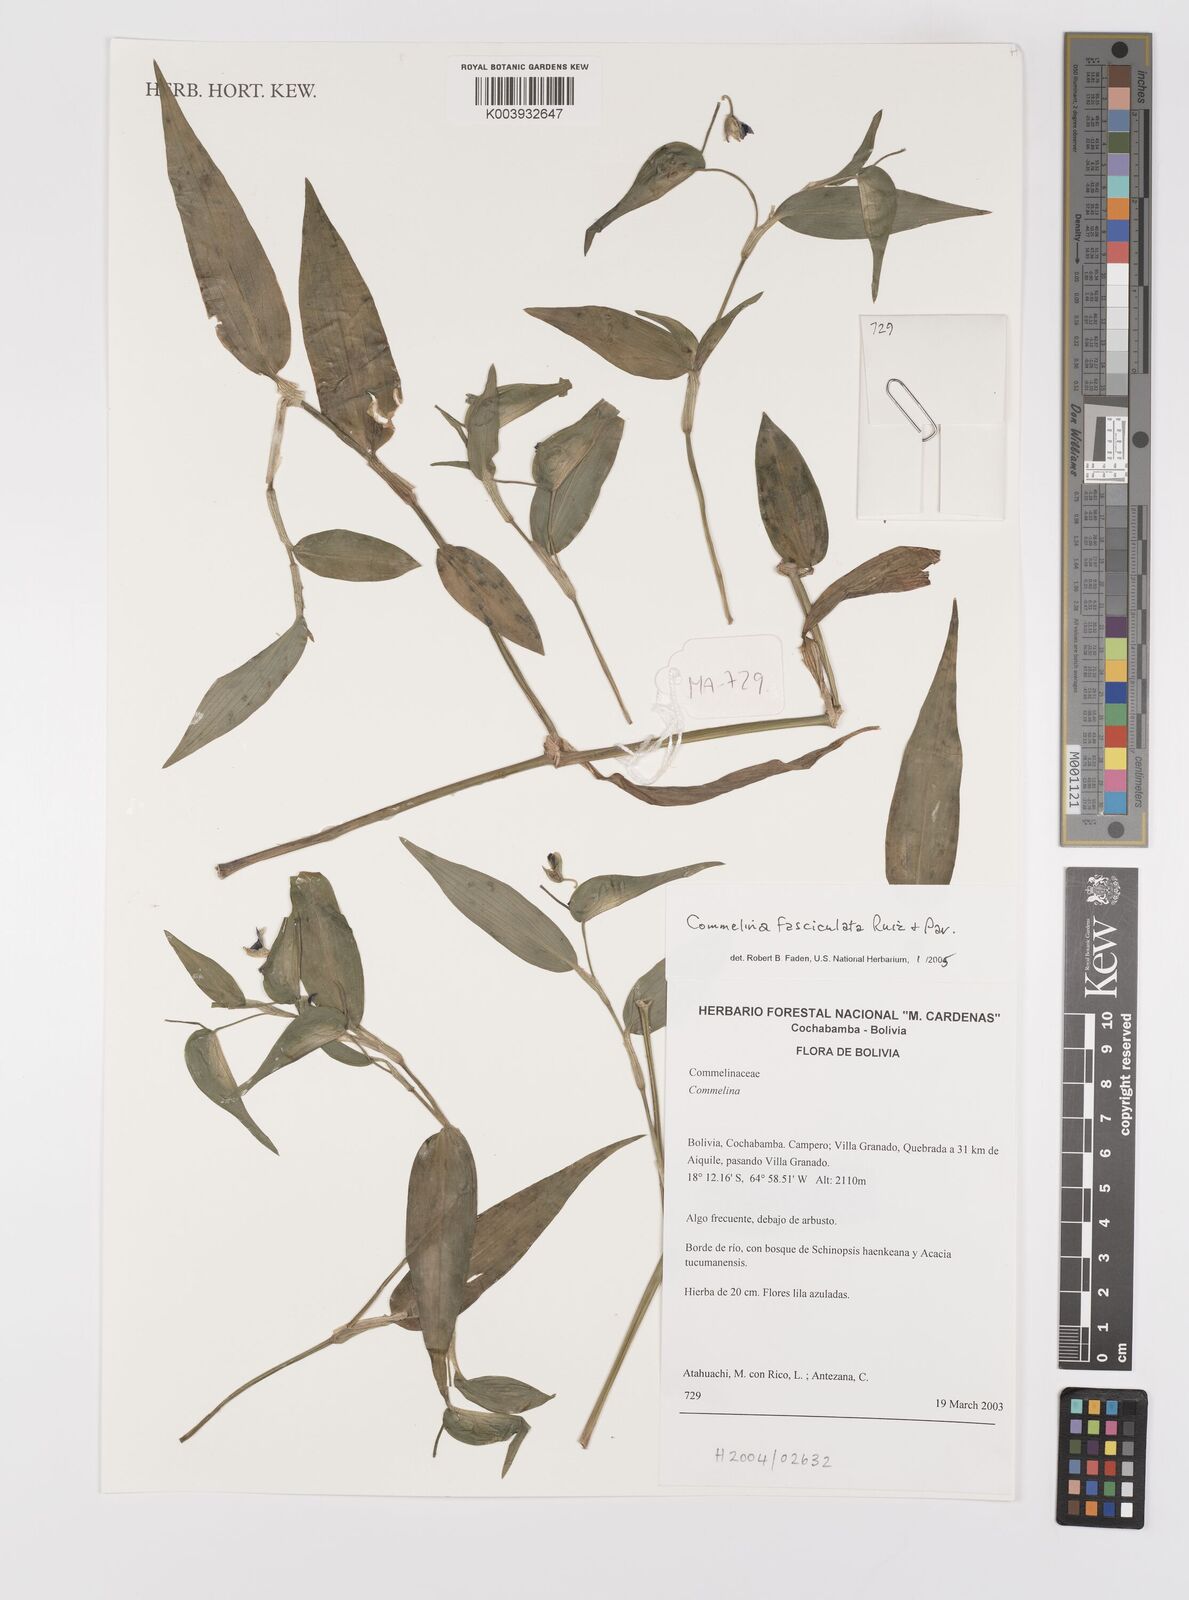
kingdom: Plantae
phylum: Tracheophyta
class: Liliopsida
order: Commelinales
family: Commelinaceae
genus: Commelina
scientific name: Commelina tuberosa
